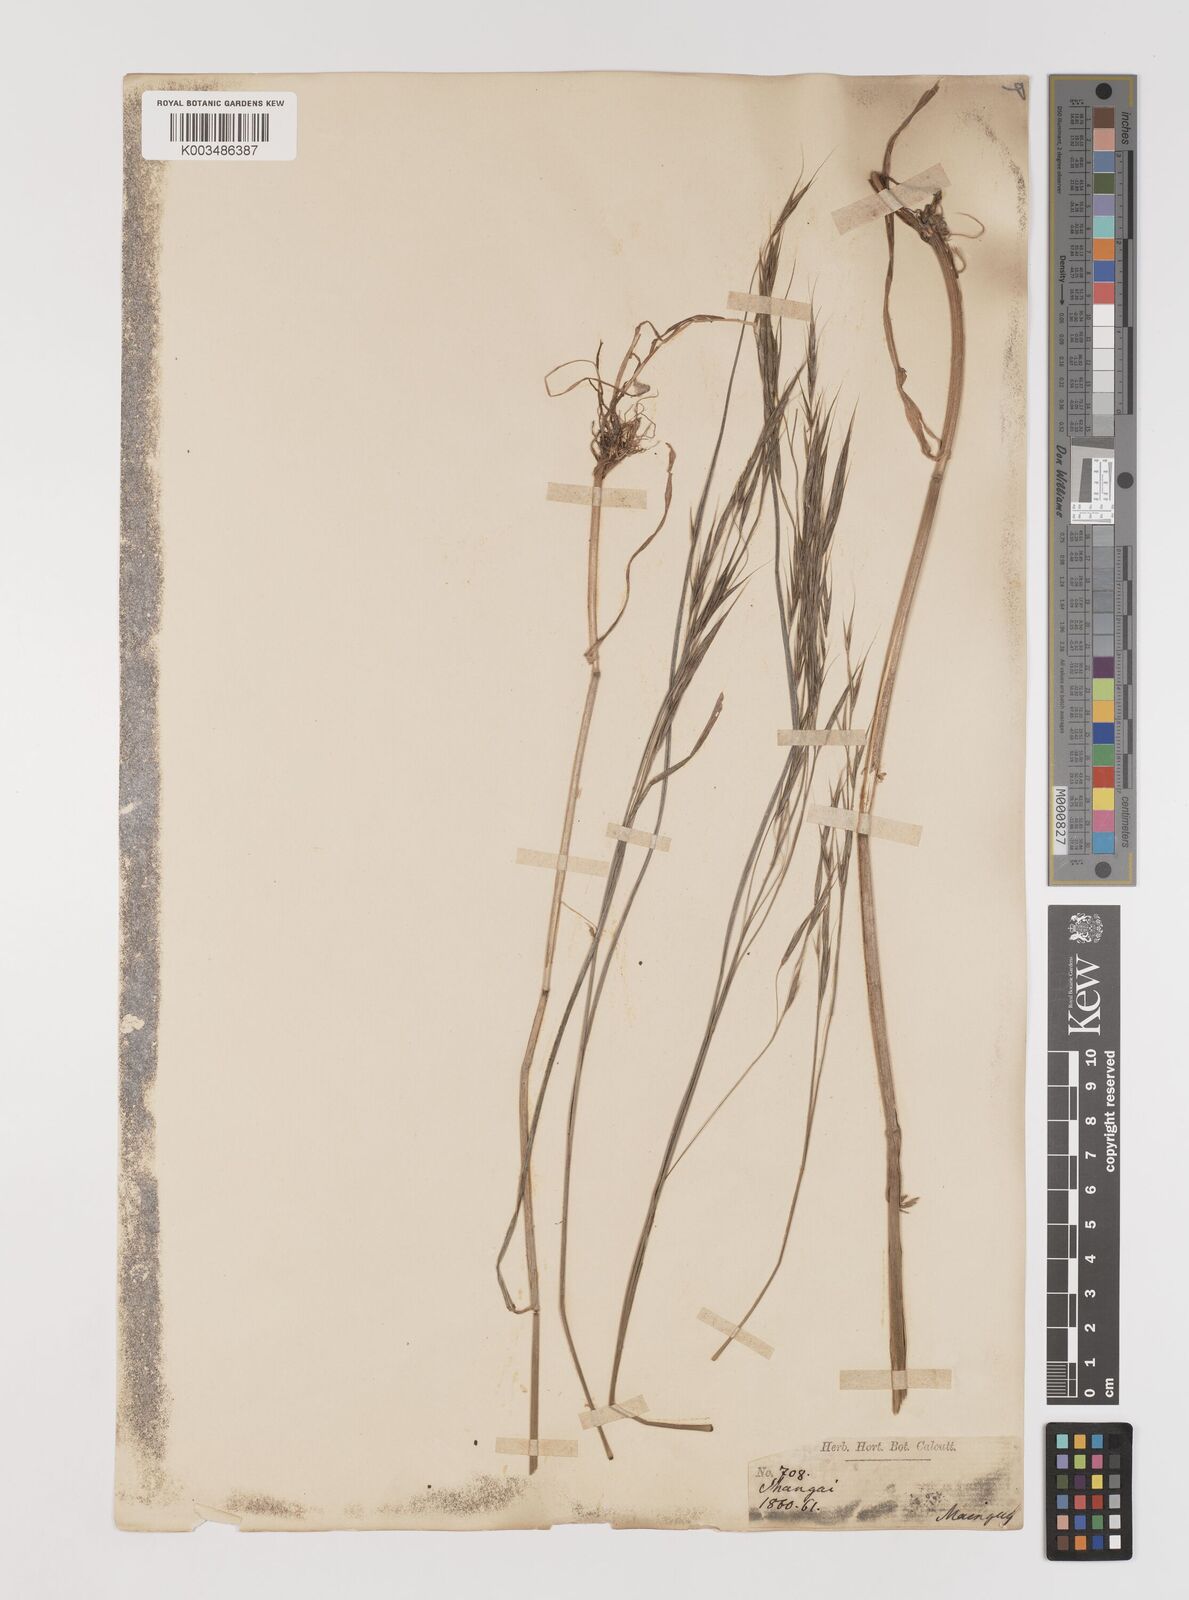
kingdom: Plantae
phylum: Tracheophyta
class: Liliopsida
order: Poales
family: Poaceae
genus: Bromus
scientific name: Bromus
